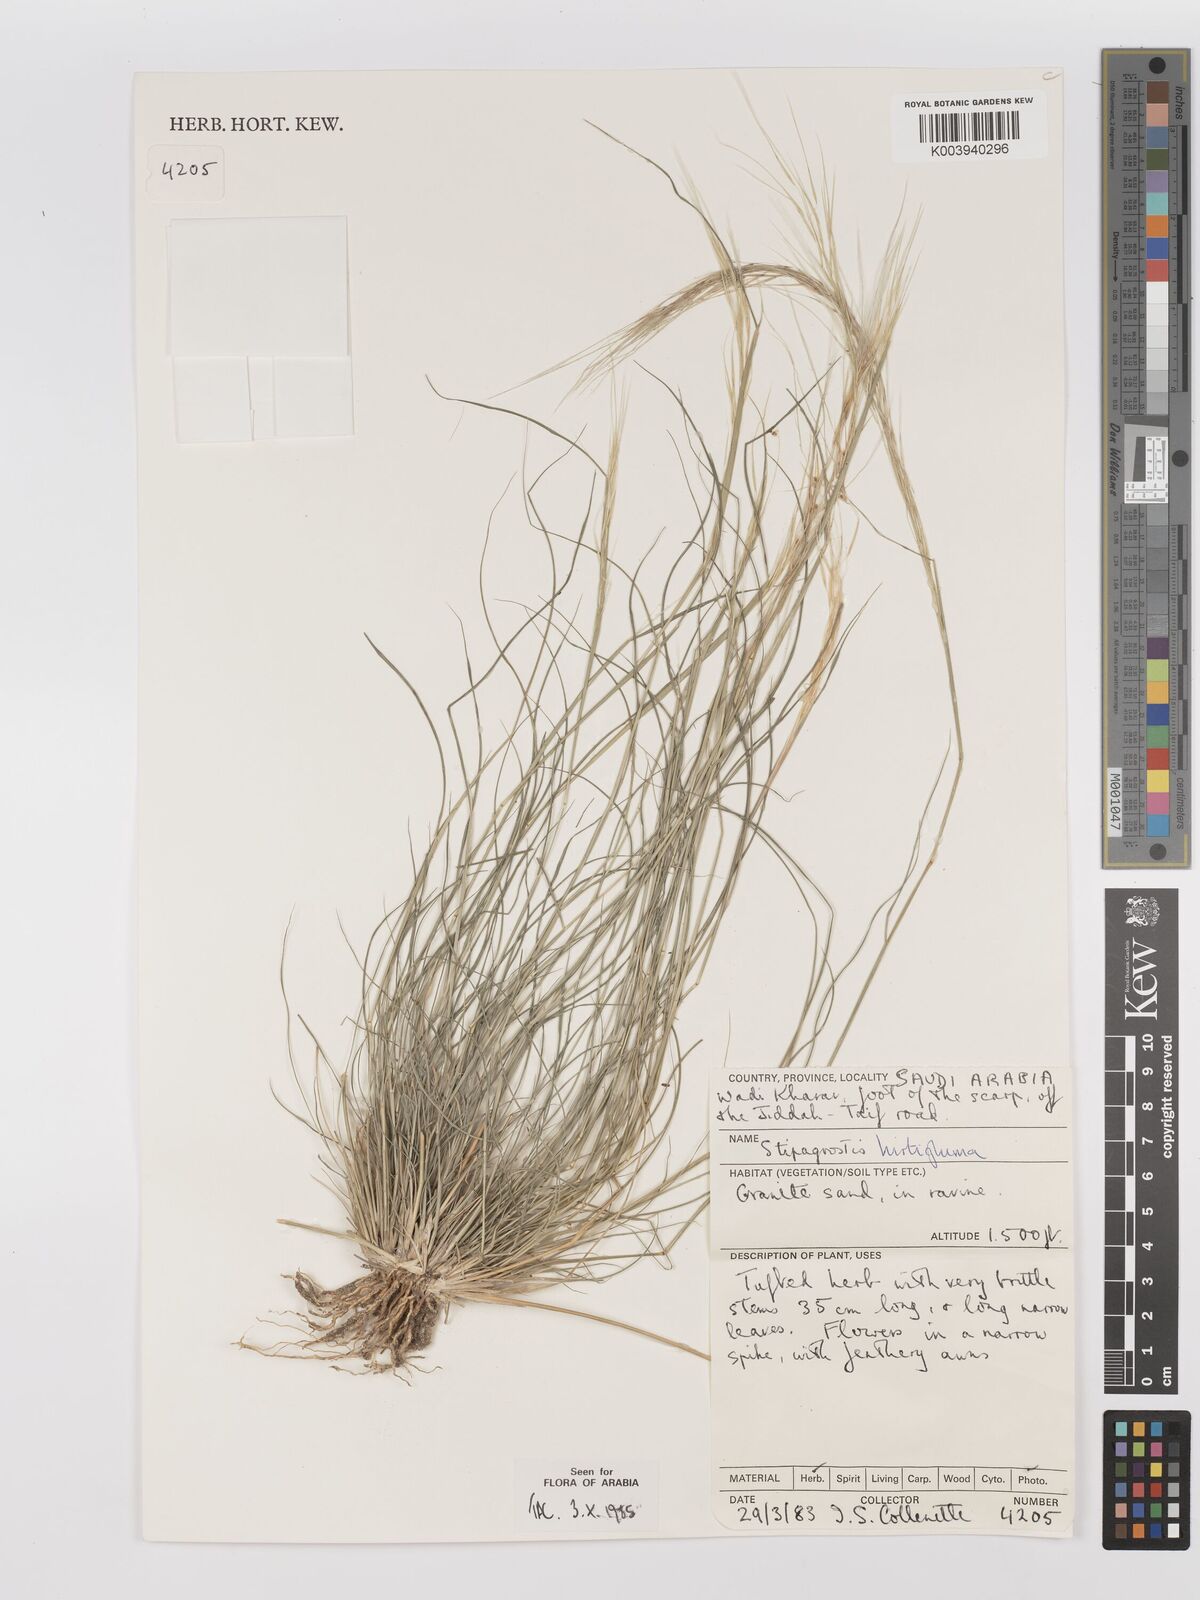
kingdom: Plantae
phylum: Tracheophyta
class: Liliopsida
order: Poales
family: Poaceae
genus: Stipagrostis
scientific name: Stipagrostis hirtigluma
